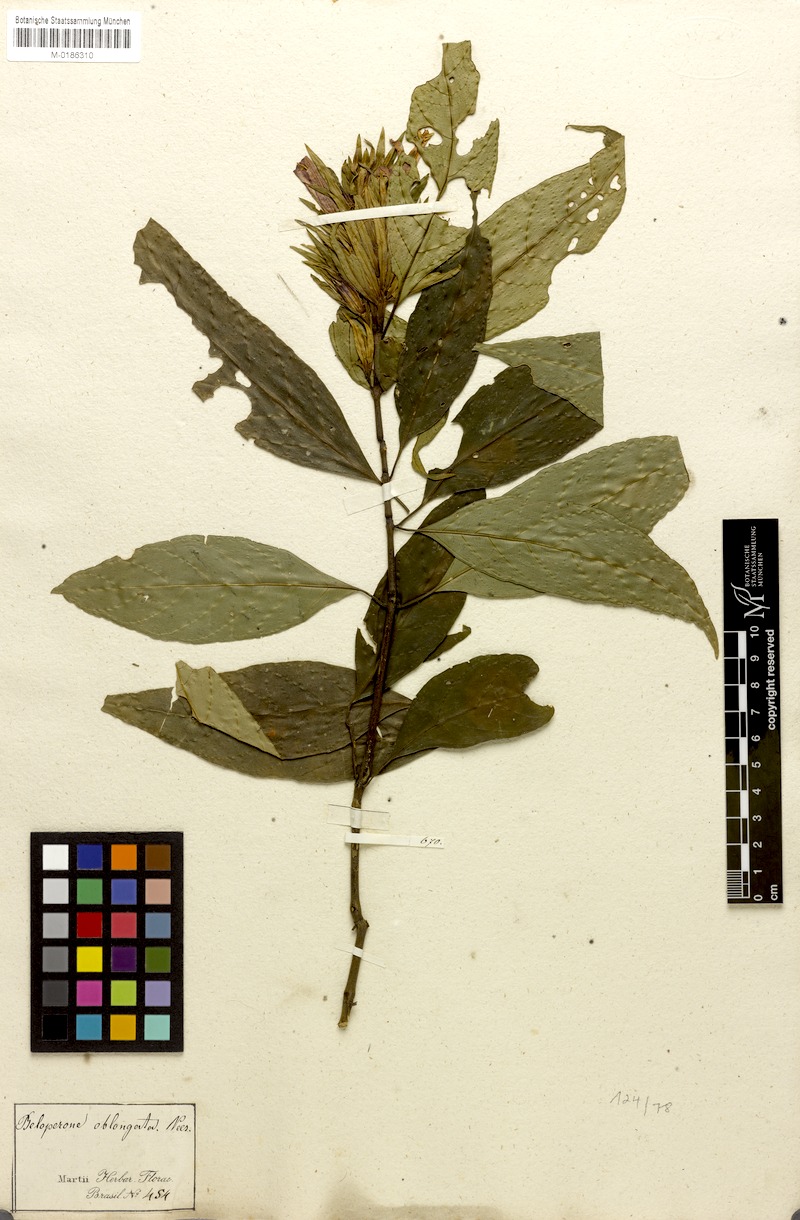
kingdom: Plantae
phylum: Tracheophyta
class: Magnoliopsida
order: Lamiales
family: Acanthaceae
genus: Justicia
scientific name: Justicia plumbaginifolia
